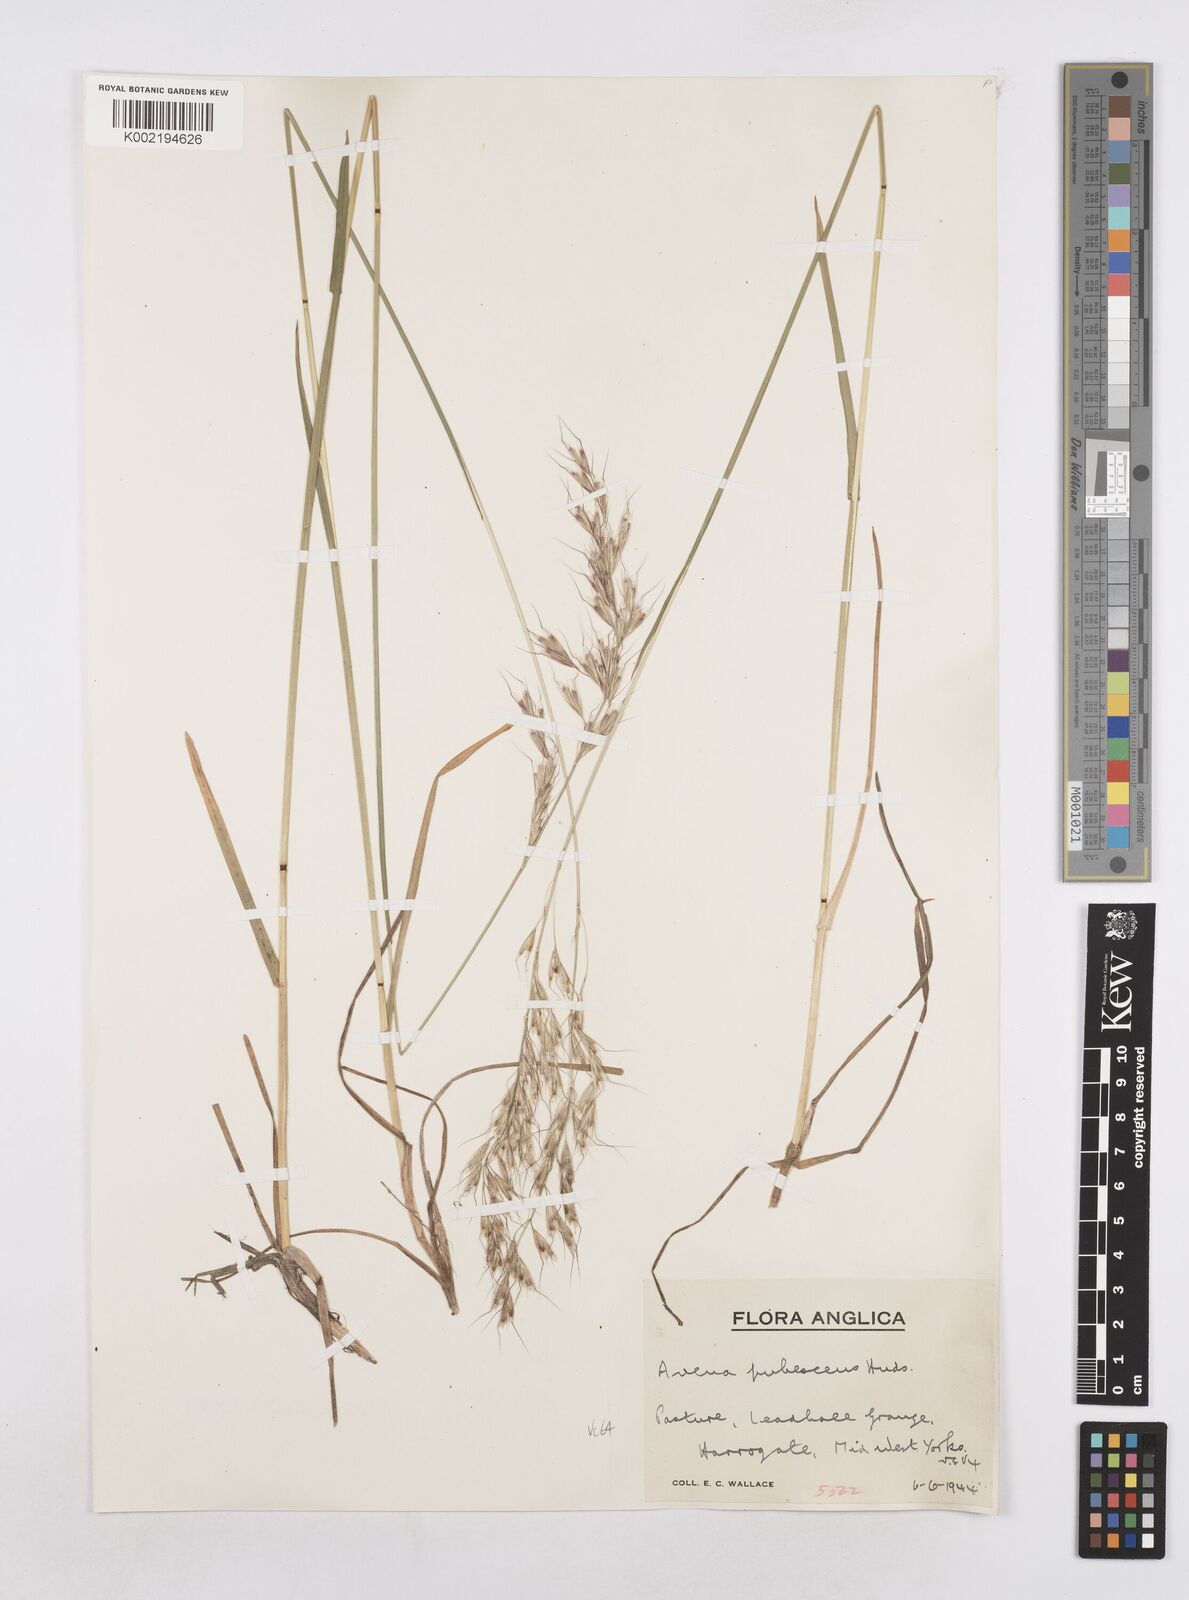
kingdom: Plantae
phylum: Tracheophyta
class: Liliopsida
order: Poales
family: Poaceae
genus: Avenula
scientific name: Avenula pubescens
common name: Downy alpine oatgrass
